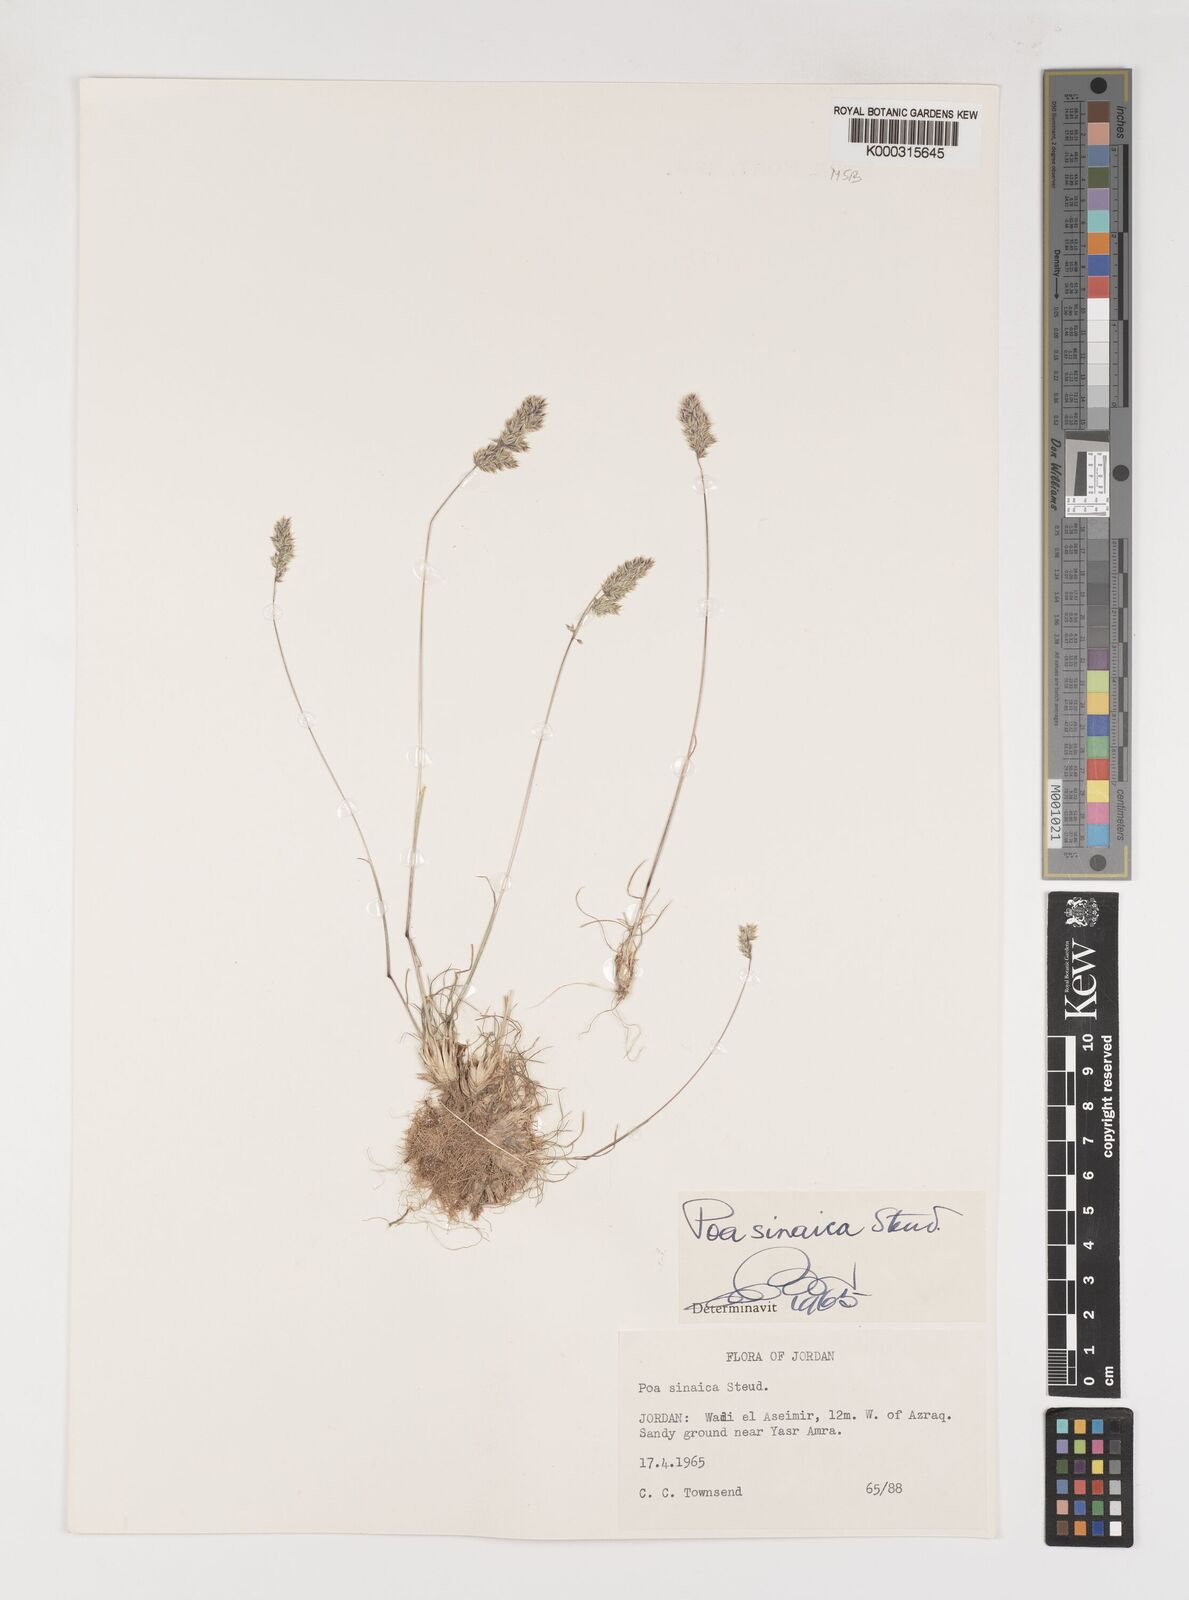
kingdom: Plantae
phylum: Tracheophyta
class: Liliopsida
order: Poales
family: Poaceae
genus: Poa
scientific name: Poa sinaica
